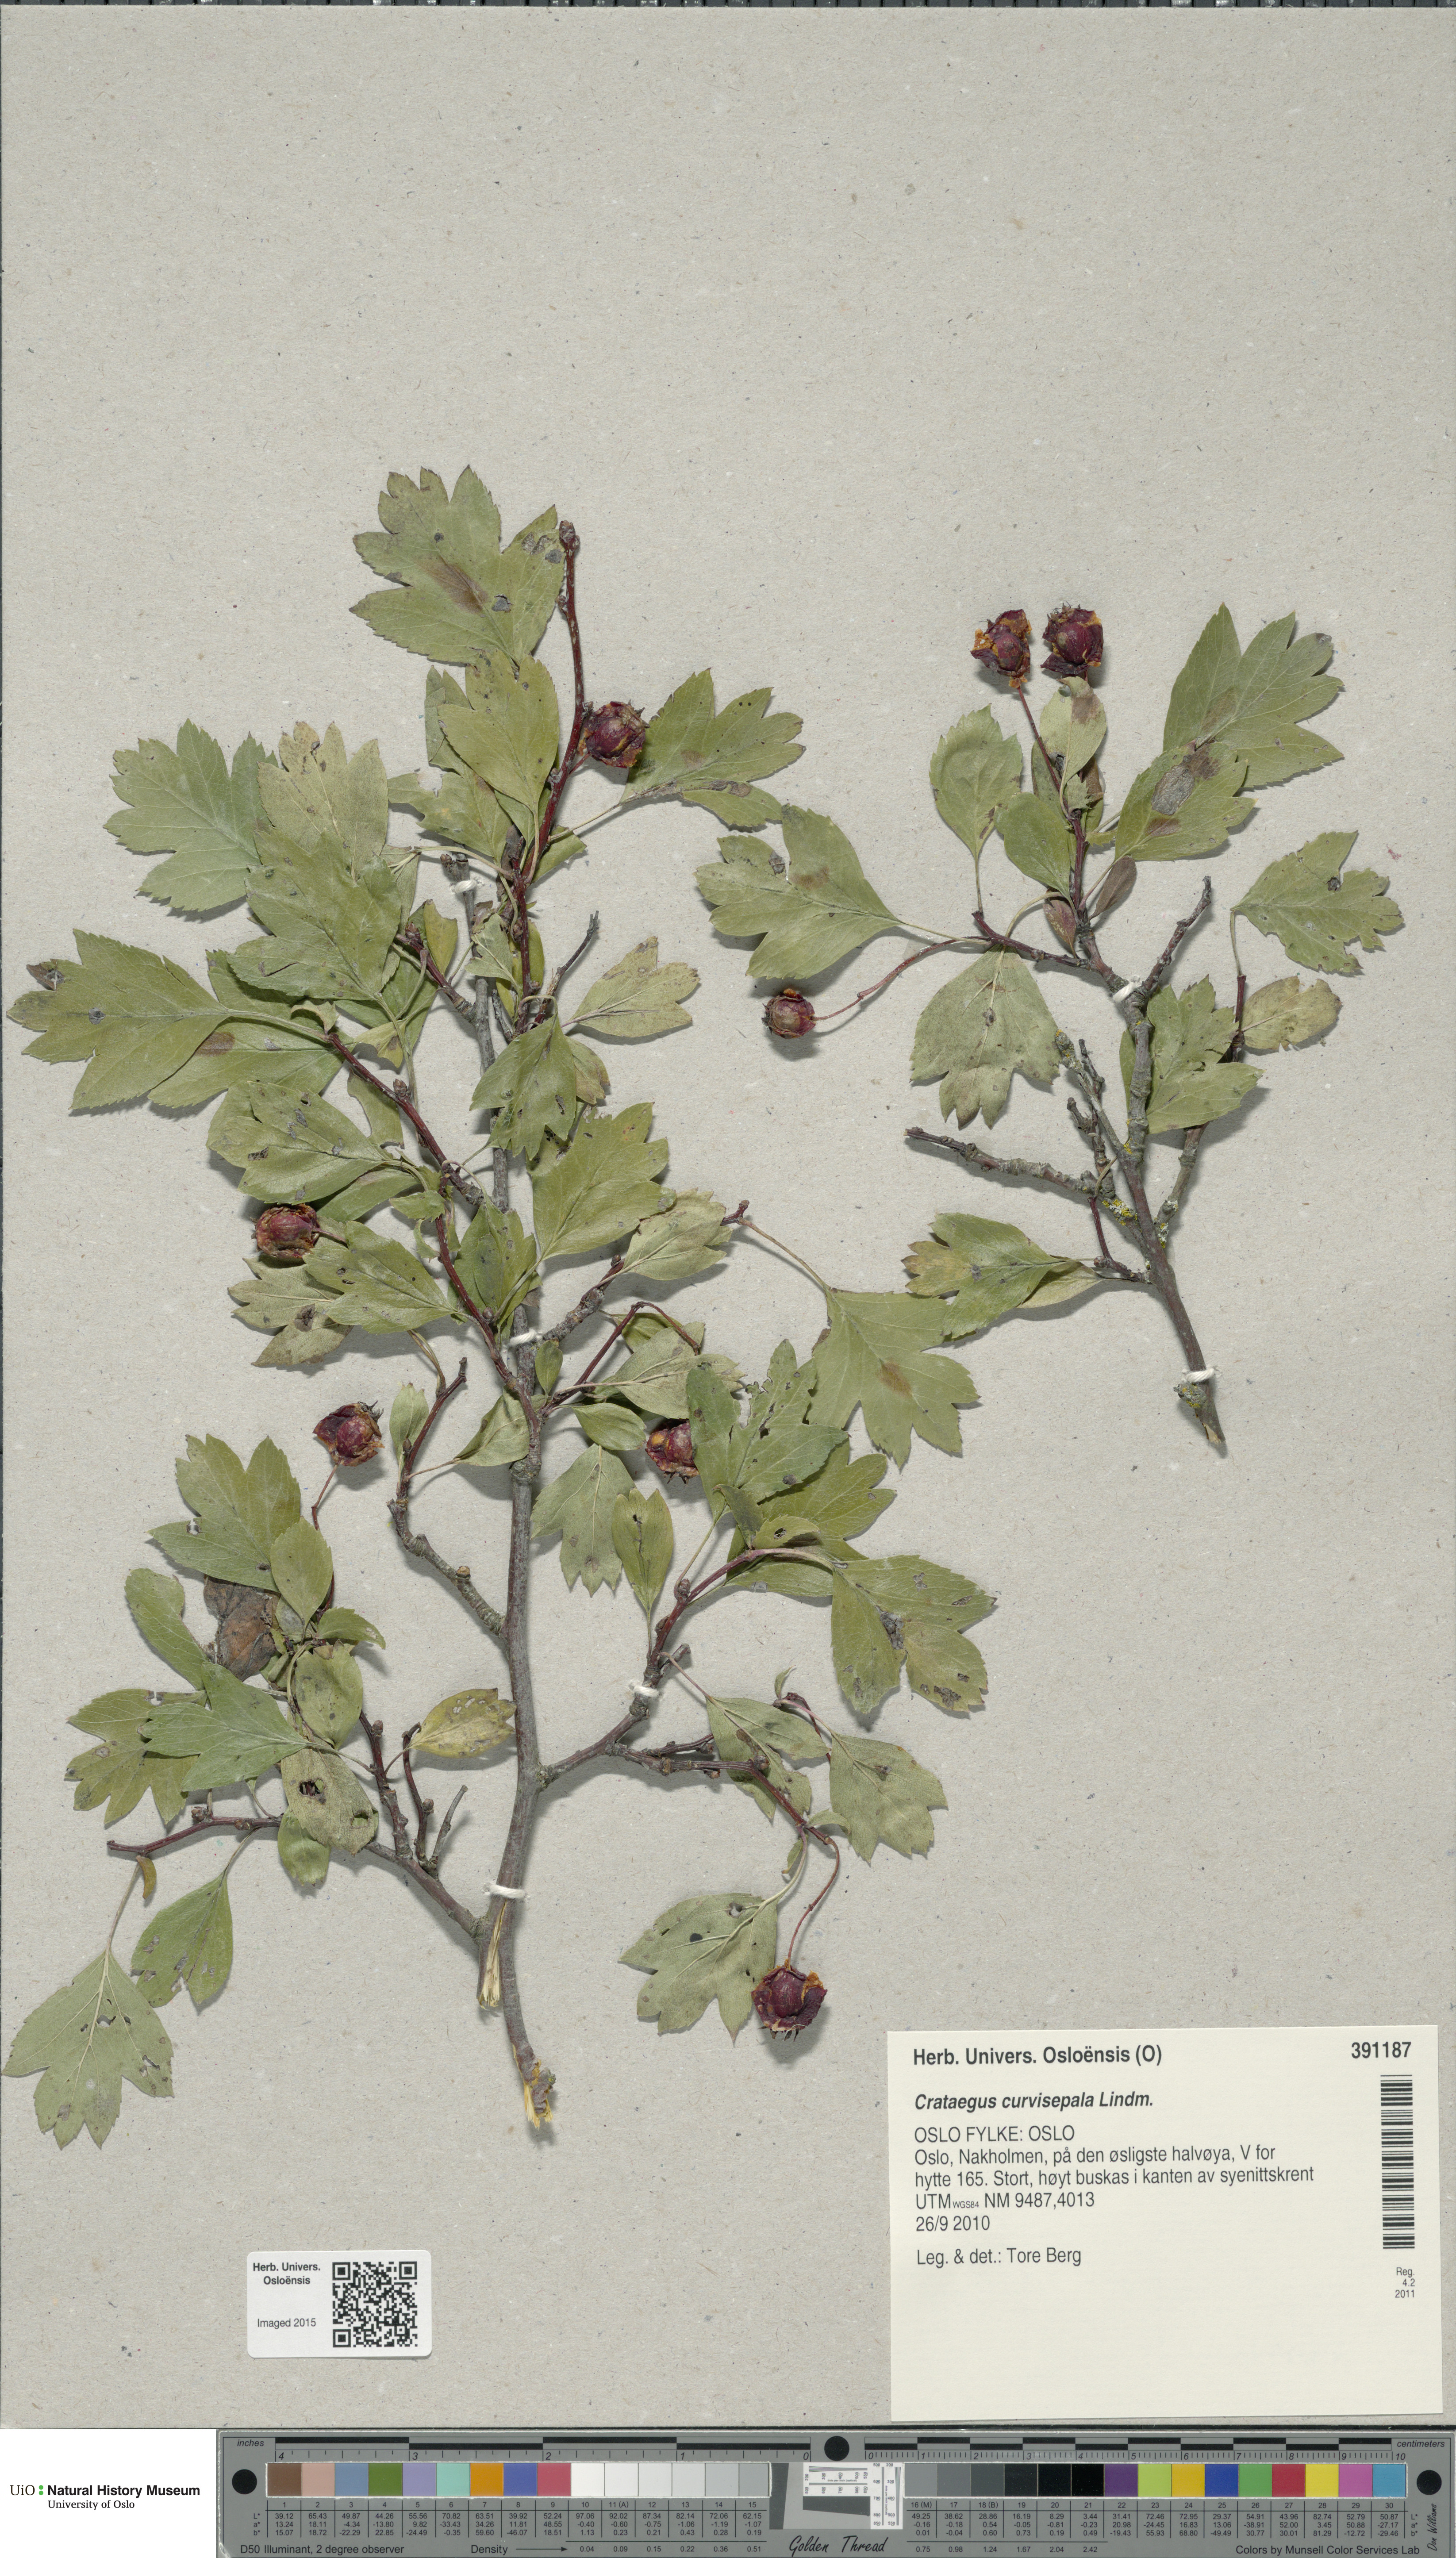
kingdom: Plantae
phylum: Tracheophyta
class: Magnoliopsida
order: Rosales
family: Rosaceae
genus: Crataegus
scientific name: Crataegus rhipidophylla
